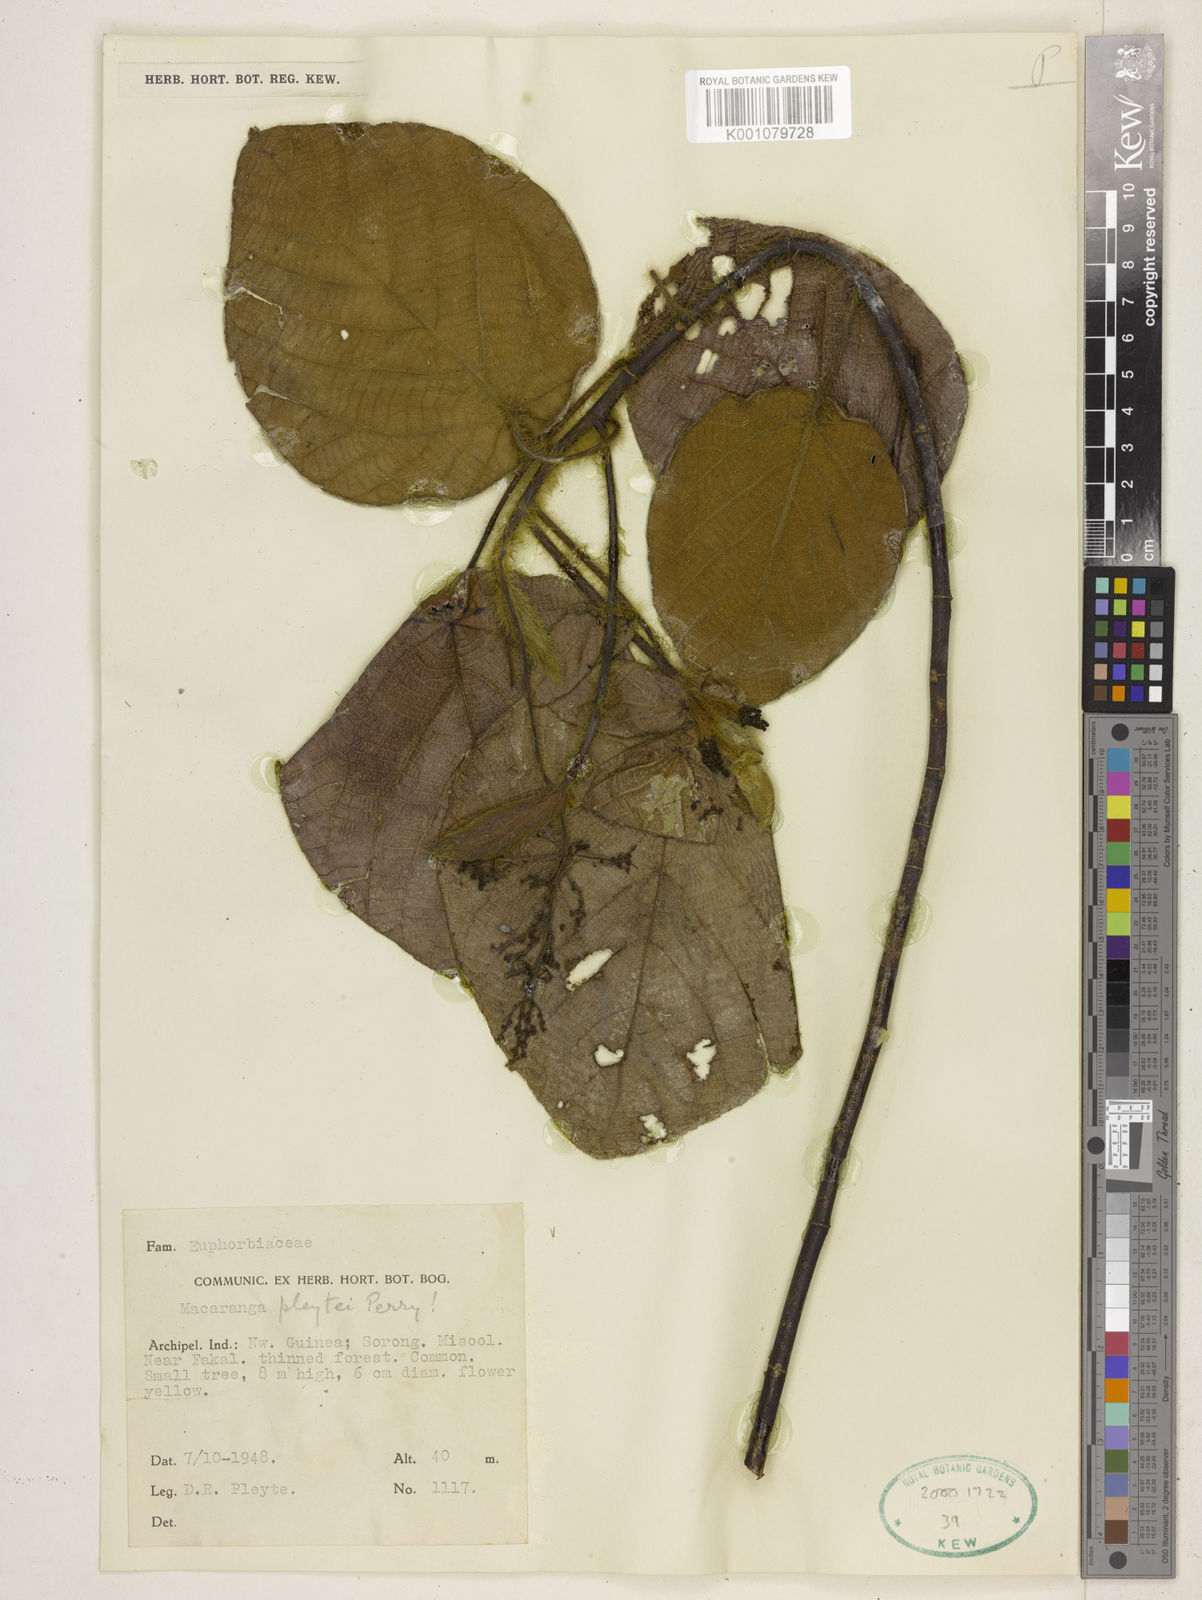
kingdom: Plantae
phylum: Tracheophyta
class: Magnoliopsida
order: Malpighiales
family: Euphorbiaceae
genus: Macaranga
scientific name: Macaranga pleytei
